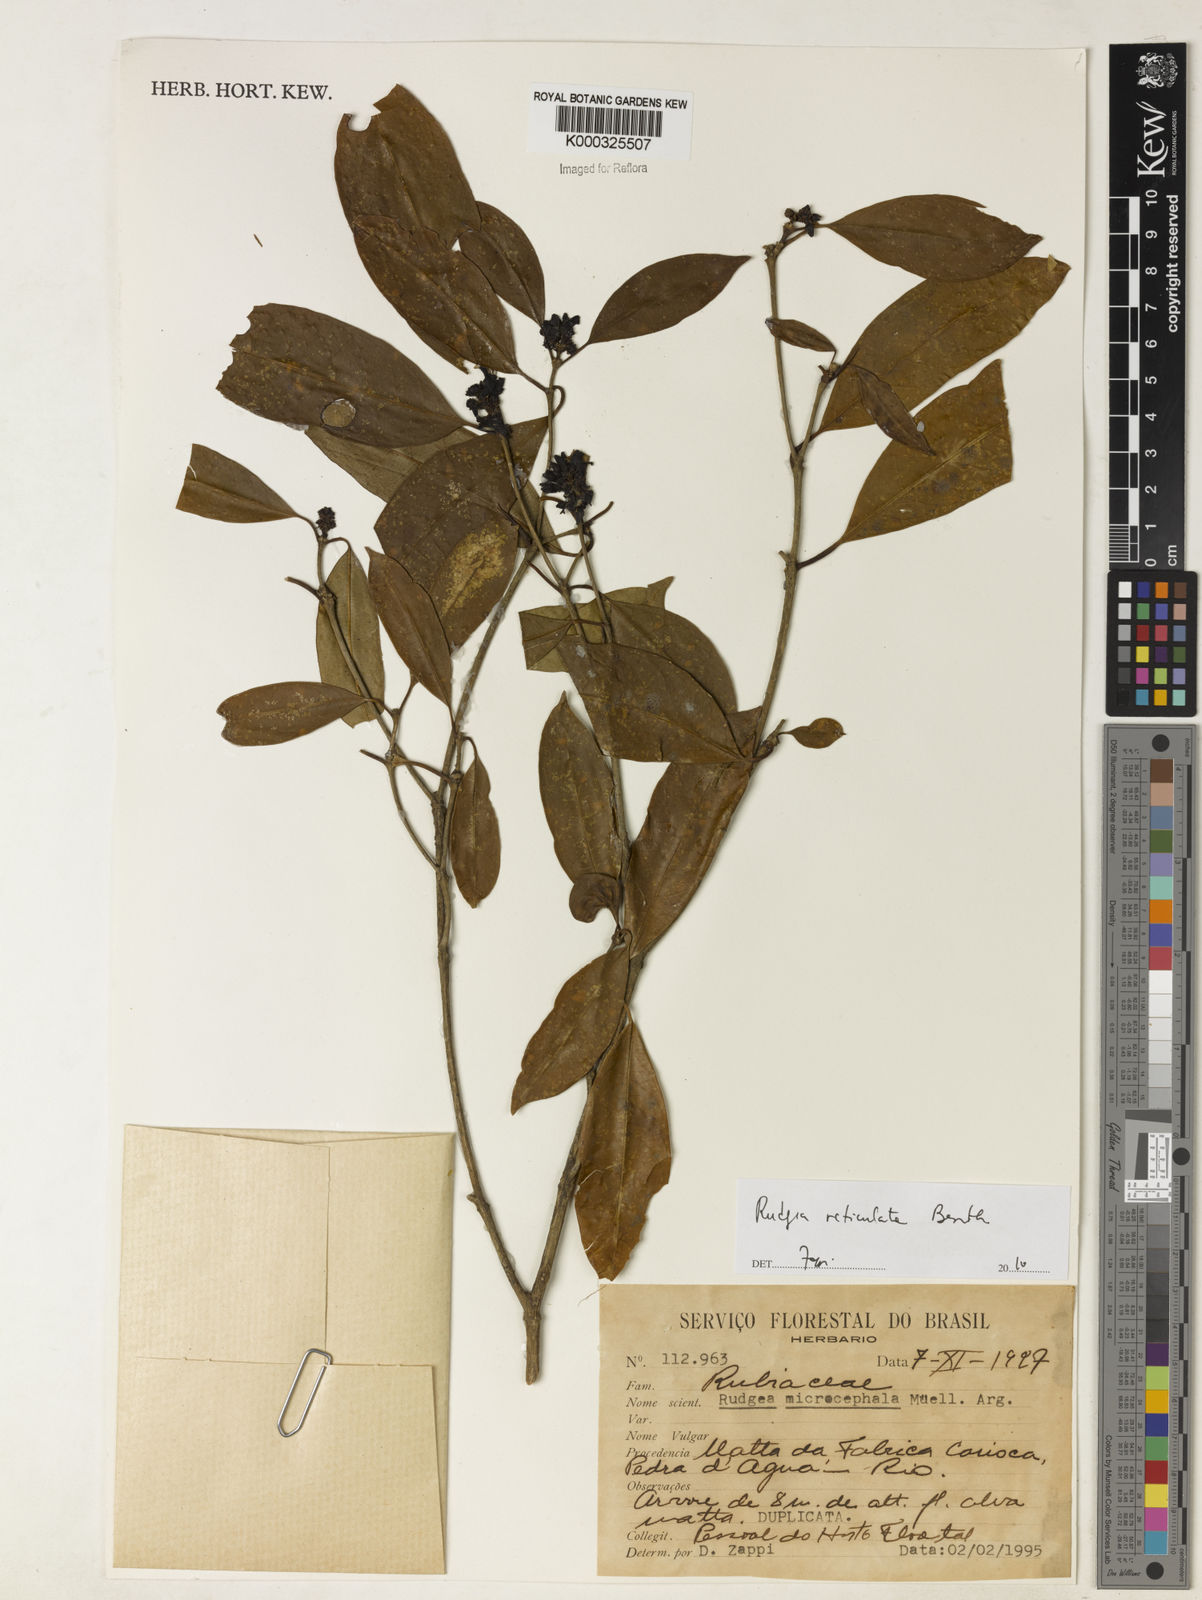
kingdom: Plantae
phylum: Tracheophyta
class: Magnoliopsida
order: Gentianales
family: Rubiaceae
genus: Rudgea
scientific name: Rudgea reticulata
